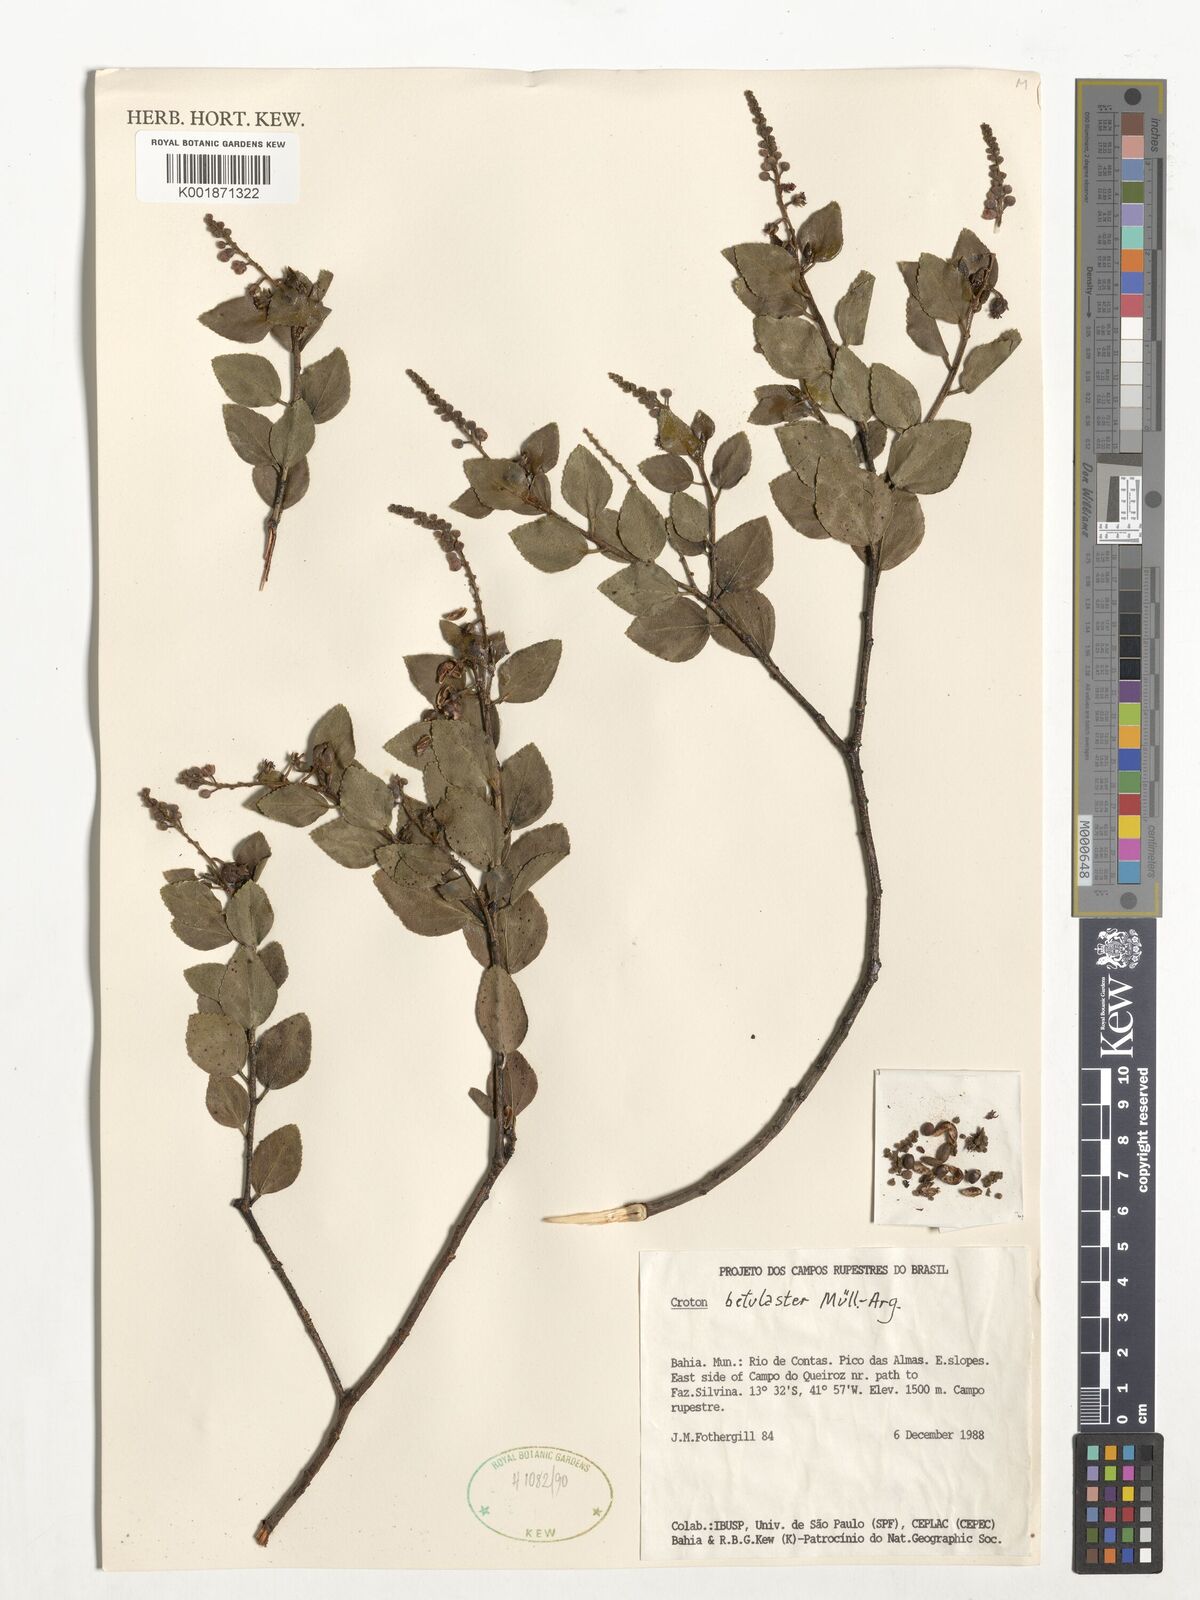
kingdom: Plantae
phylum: Tracheophyta
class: Magnoliopsida
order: Malpighiales
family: Euphorbiaceae
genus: Croton
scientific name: Croton betulaster
